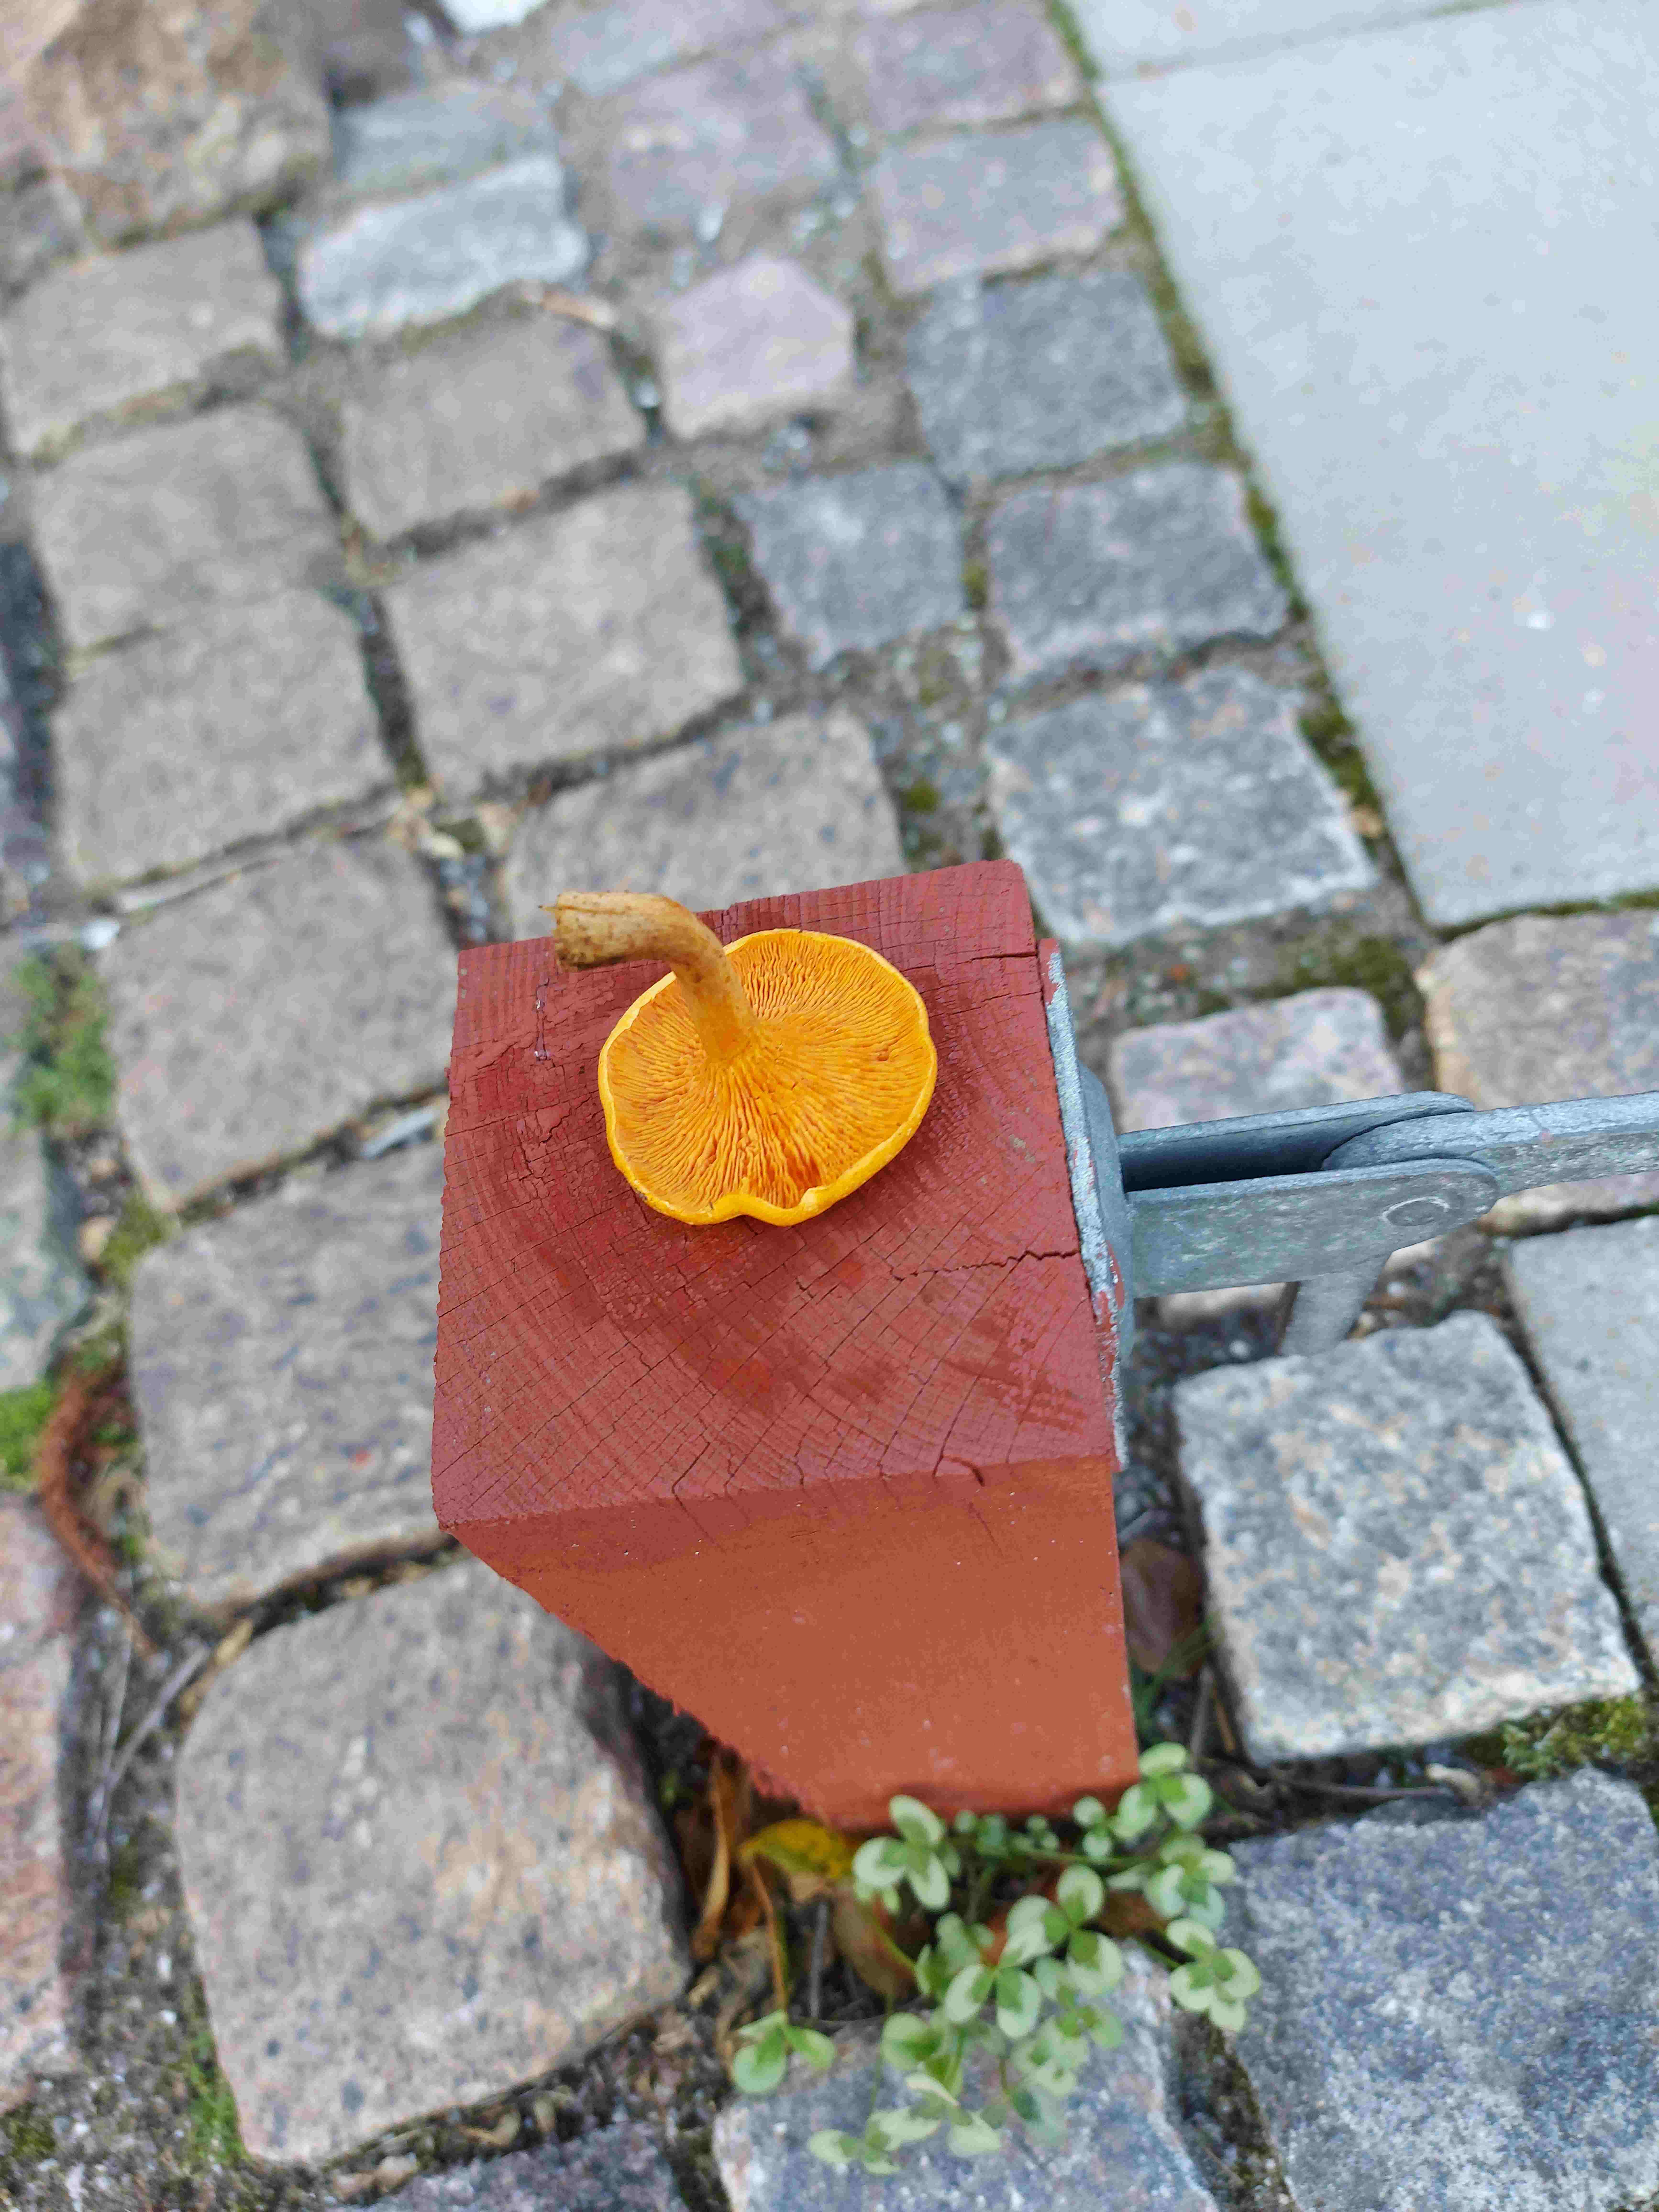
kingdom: Fungi
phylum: Basidiomycota
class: Agaricomycetes
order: Boletales
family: Hygrophoropsidaceae
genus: Hygrophoropsis
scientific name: Hygrophoropsis aurantiaca
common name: almindelig orangekantarel
